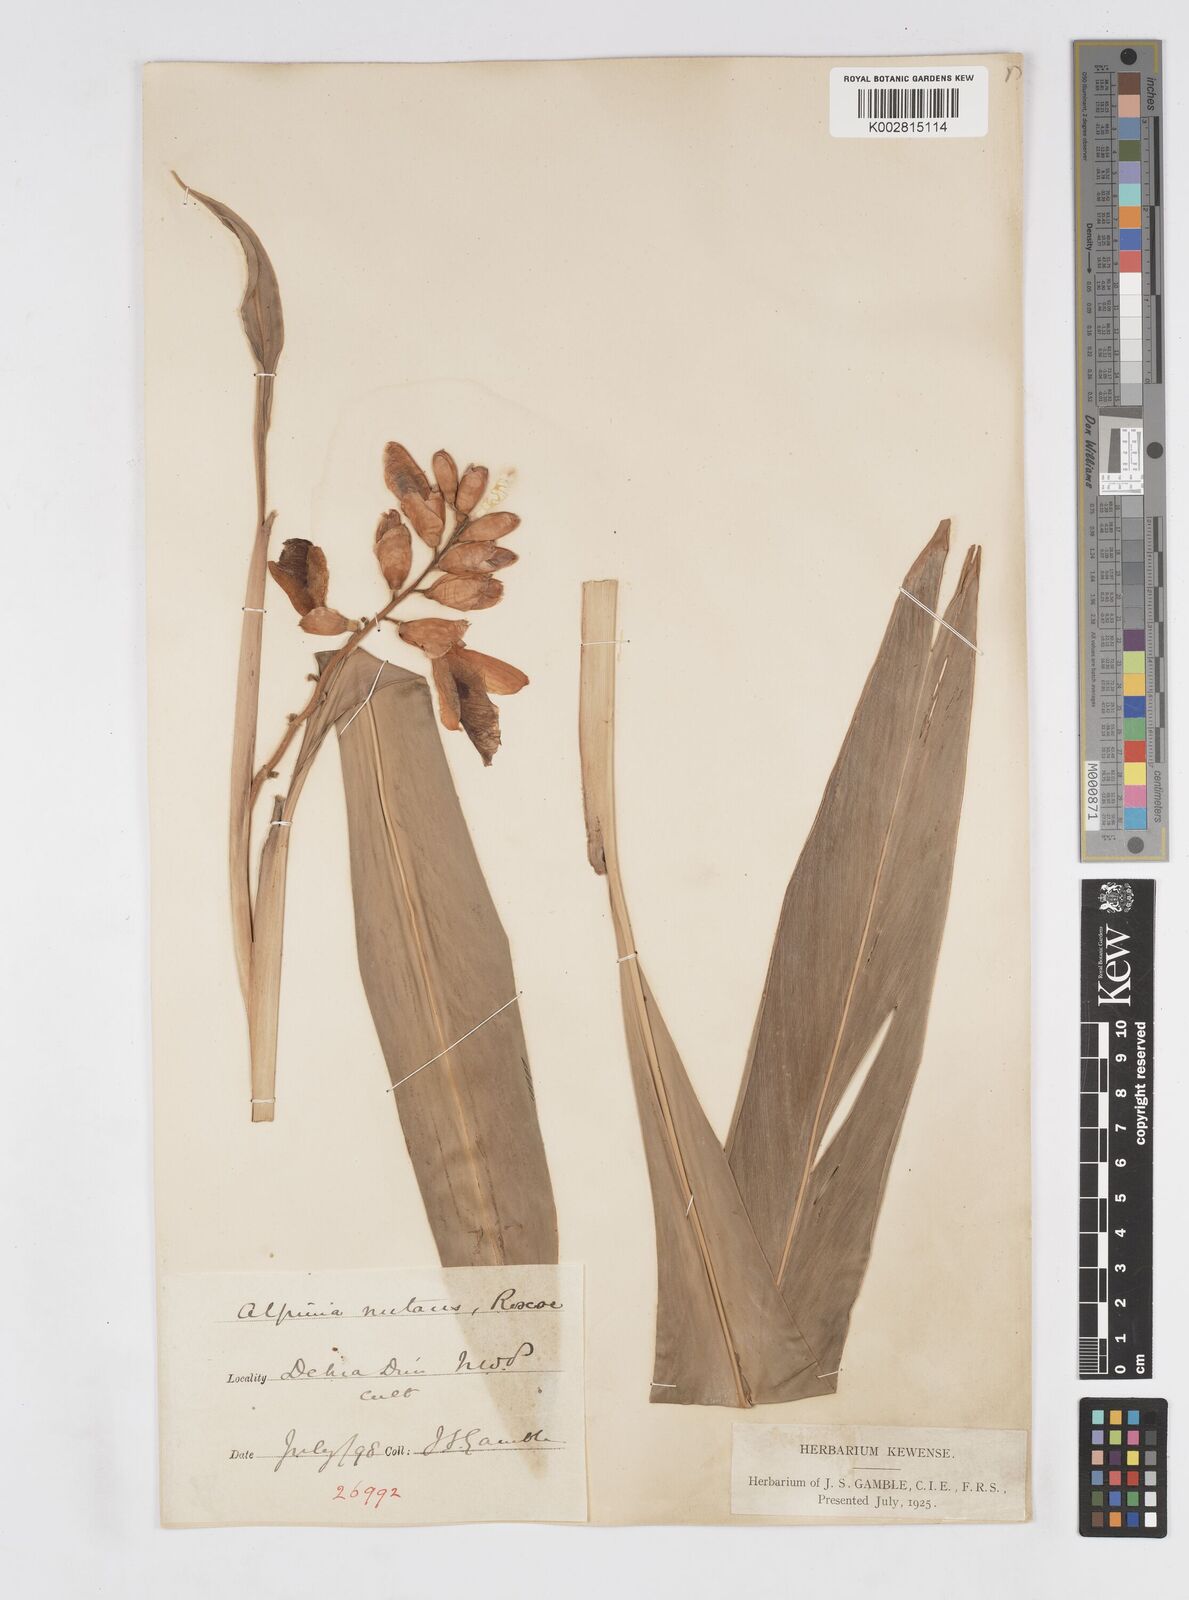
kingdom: Plantae
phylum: Tracheophyta
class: Liliopsida
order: Zingiberales
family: Zingiberaceae
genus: Alpinia
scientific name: Alpinia zerumbet
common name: Shellplant
